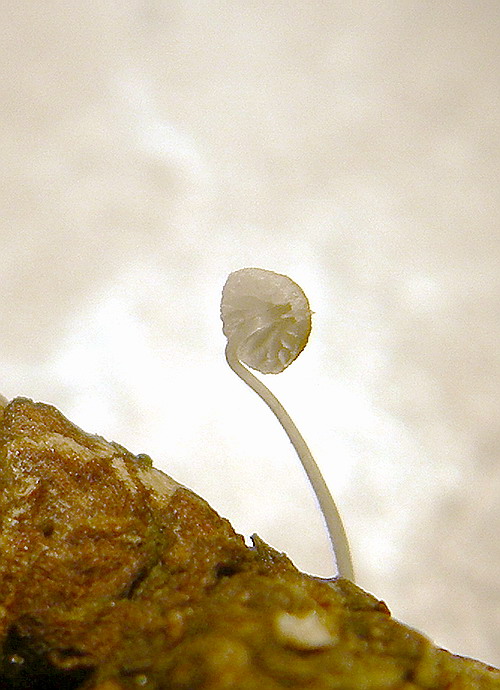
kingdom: Fungi
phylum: Basidiomycota
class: Agaricomycetes
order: Agaricales
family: Mycenaceae
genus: Mycena
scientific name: Mycena tenerrima
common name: pudret huesvamp
